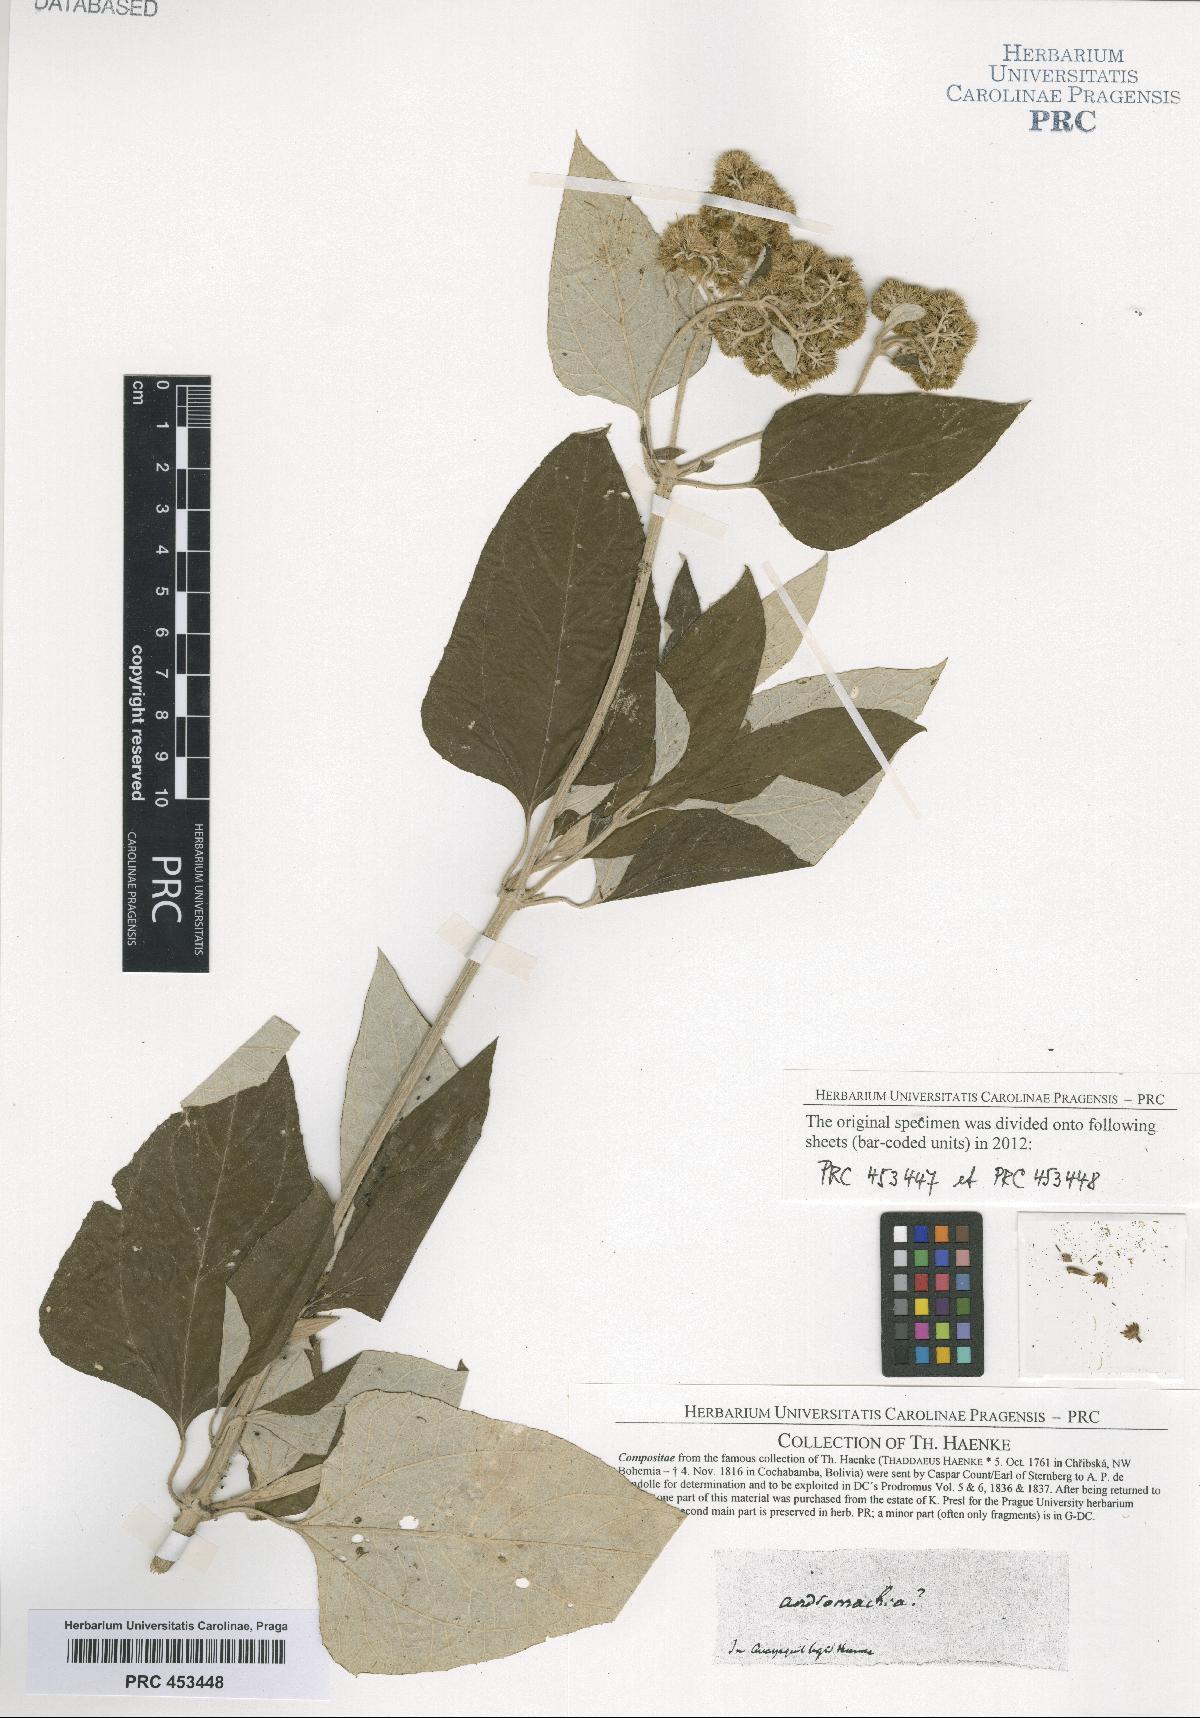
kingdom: Plantae
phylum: Tracheophyta
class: Magnoliopsida
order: Asterales
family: Asteraceae
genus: Andromachia
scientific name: Andromachia
